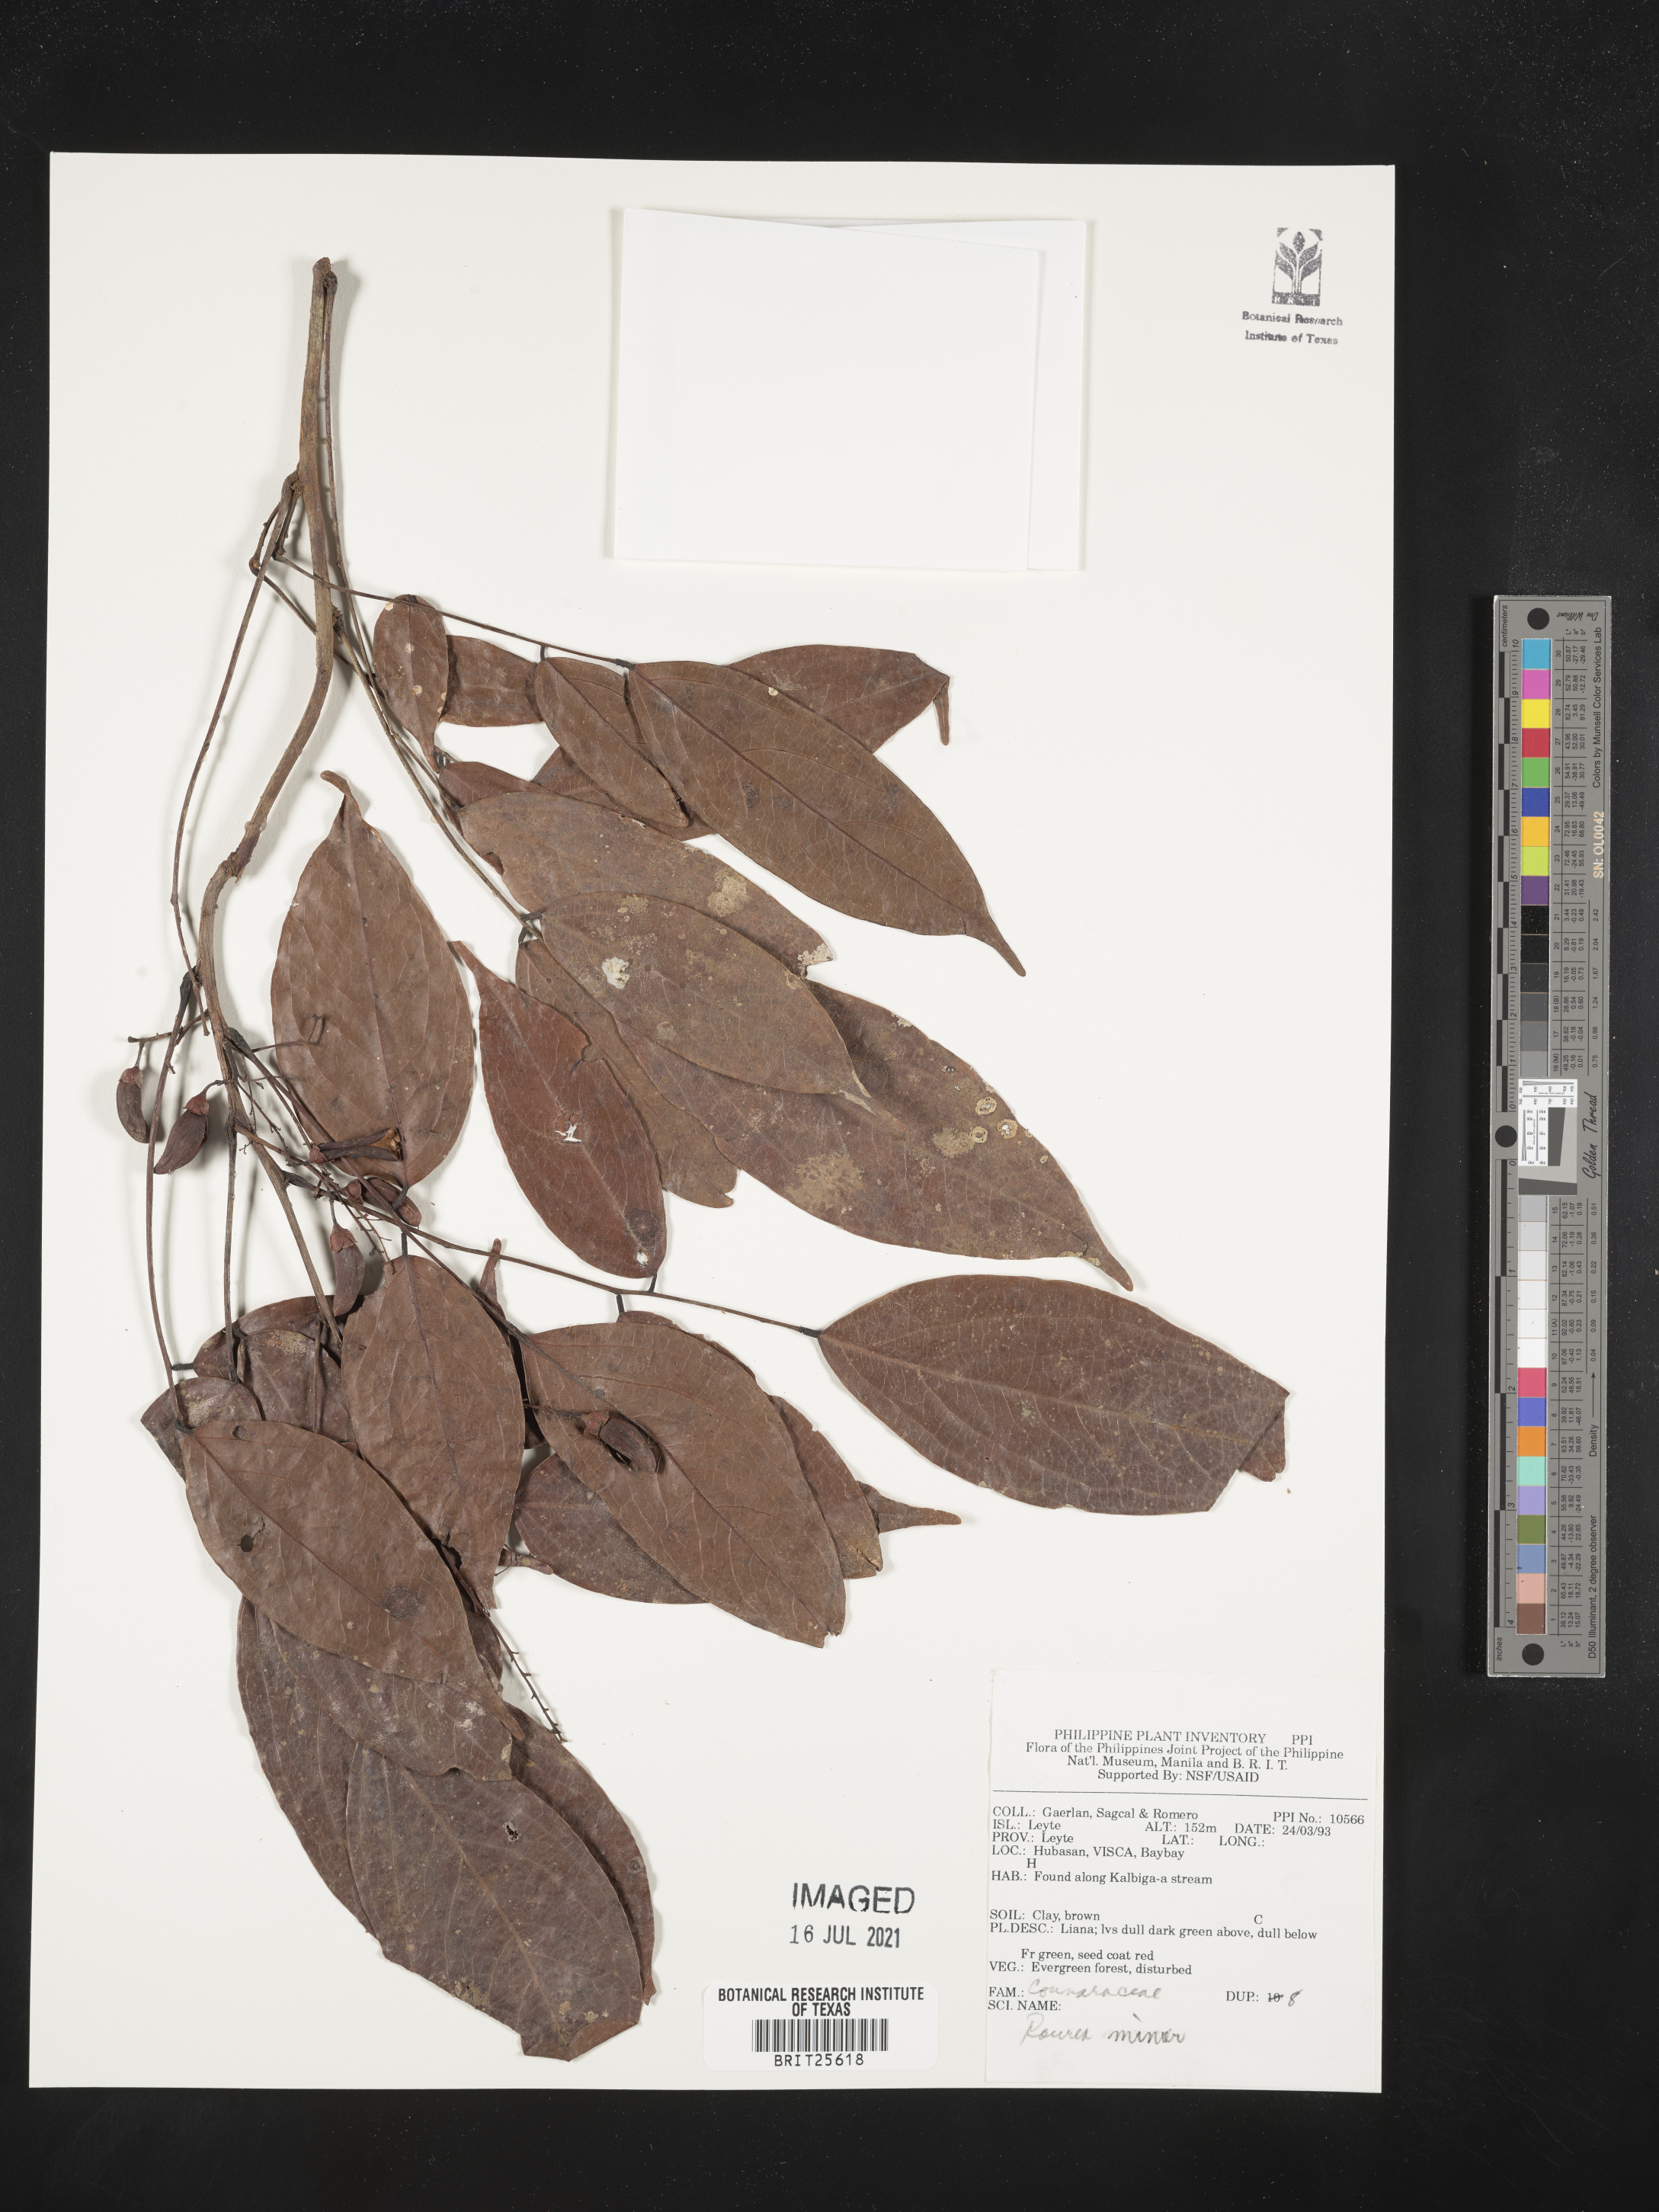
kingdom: Plantae
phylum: Tracheophyta
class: Magnoliopsida
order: Oxalidales
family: Connaraceae
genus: Rourea
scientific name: Rourea minor
